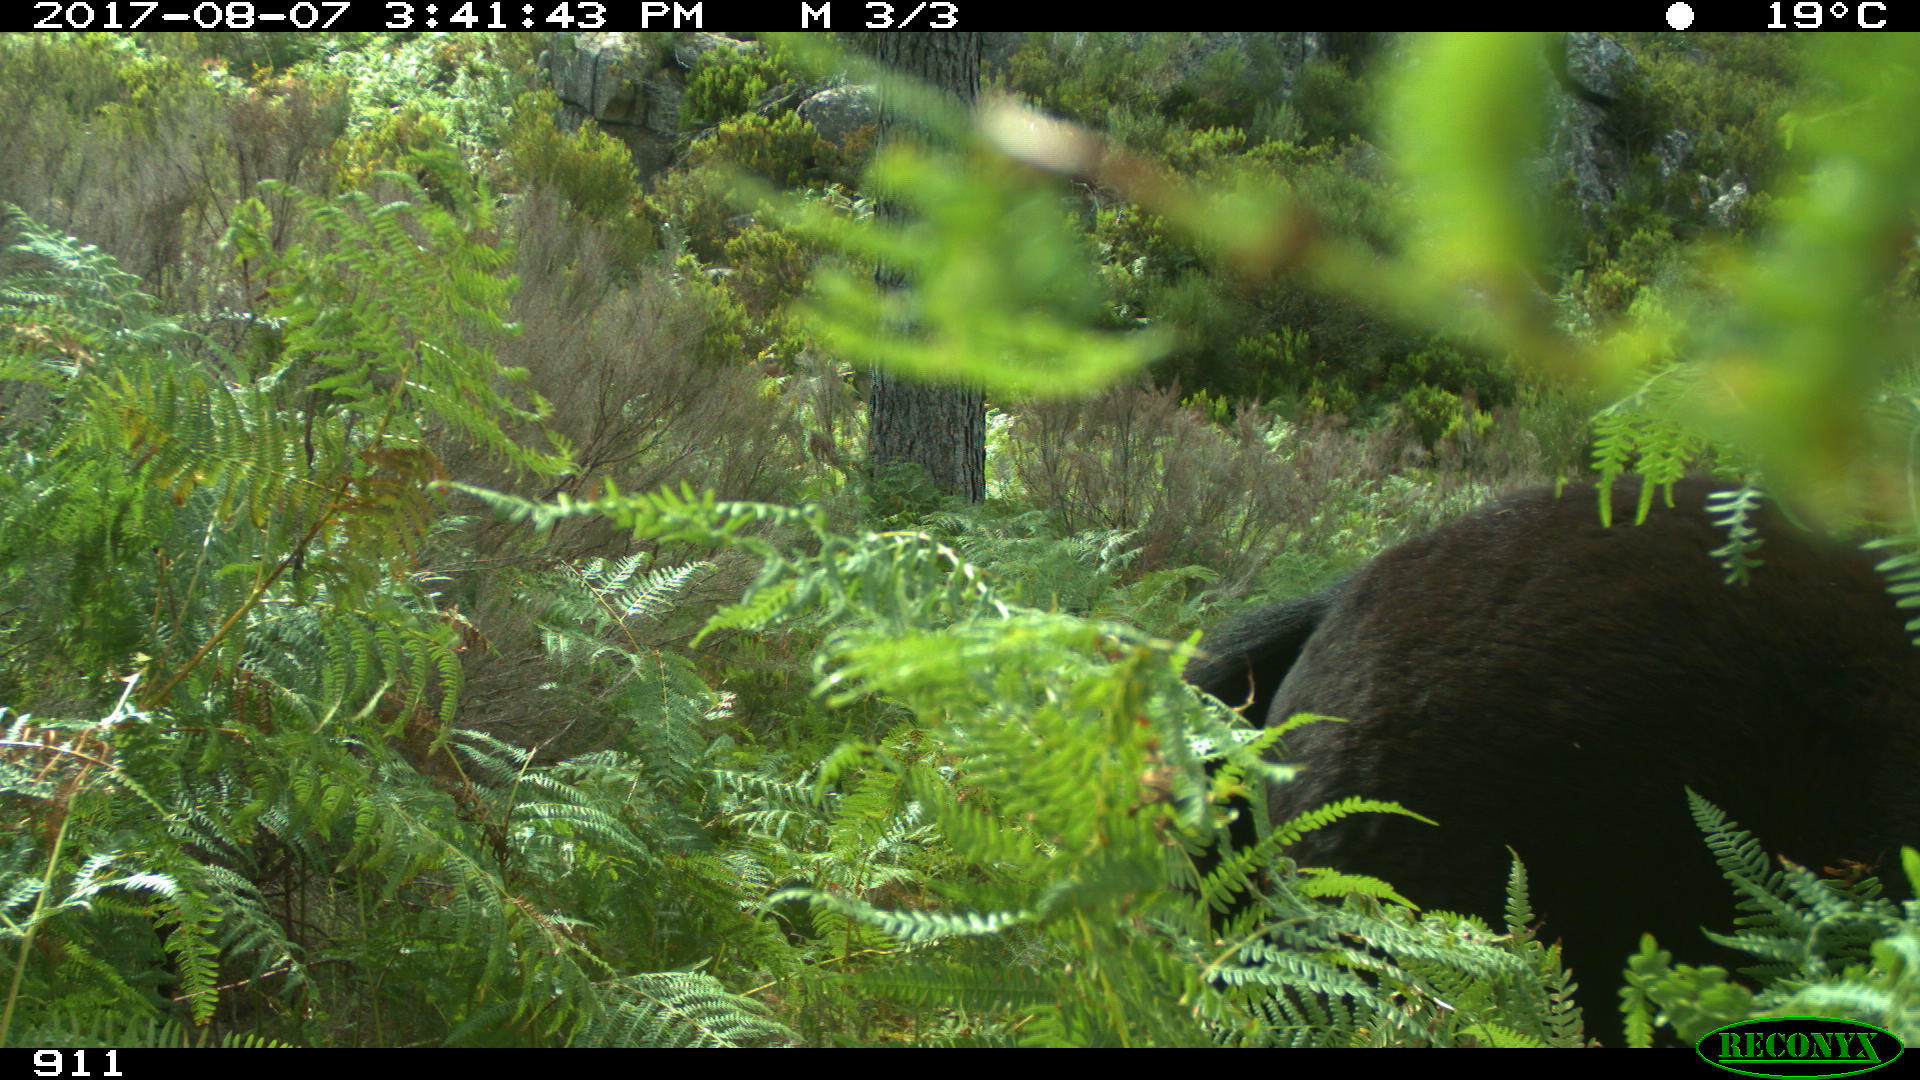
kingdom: Animalia
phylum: Chordata
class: Mammalia
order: Perissodactyla
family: Equidae
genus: Equus
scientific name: Equus caballus
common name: Horse
